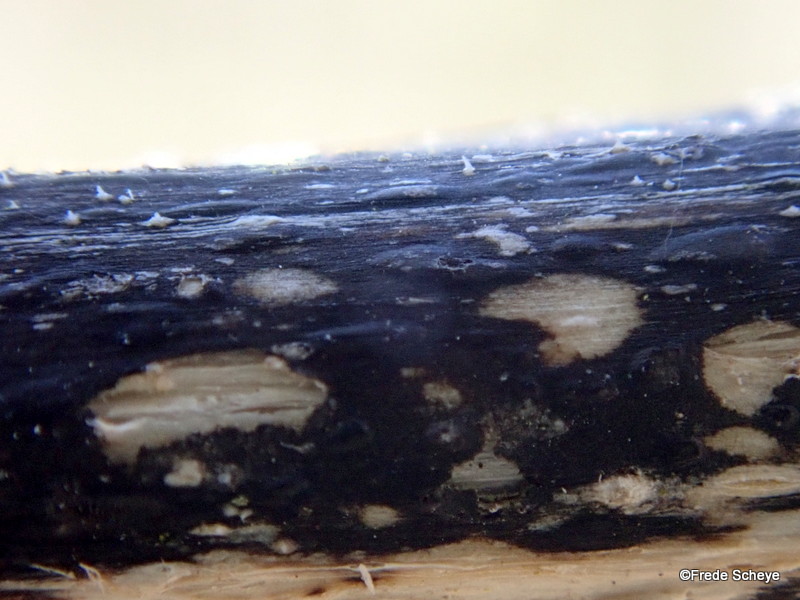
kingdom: Fungi
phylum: Ascomycota
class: Sordariomycetes
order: Diaporthales
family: Diaporthaceae
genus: Diaporthopsis
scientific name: Diaporthopsis urticae
